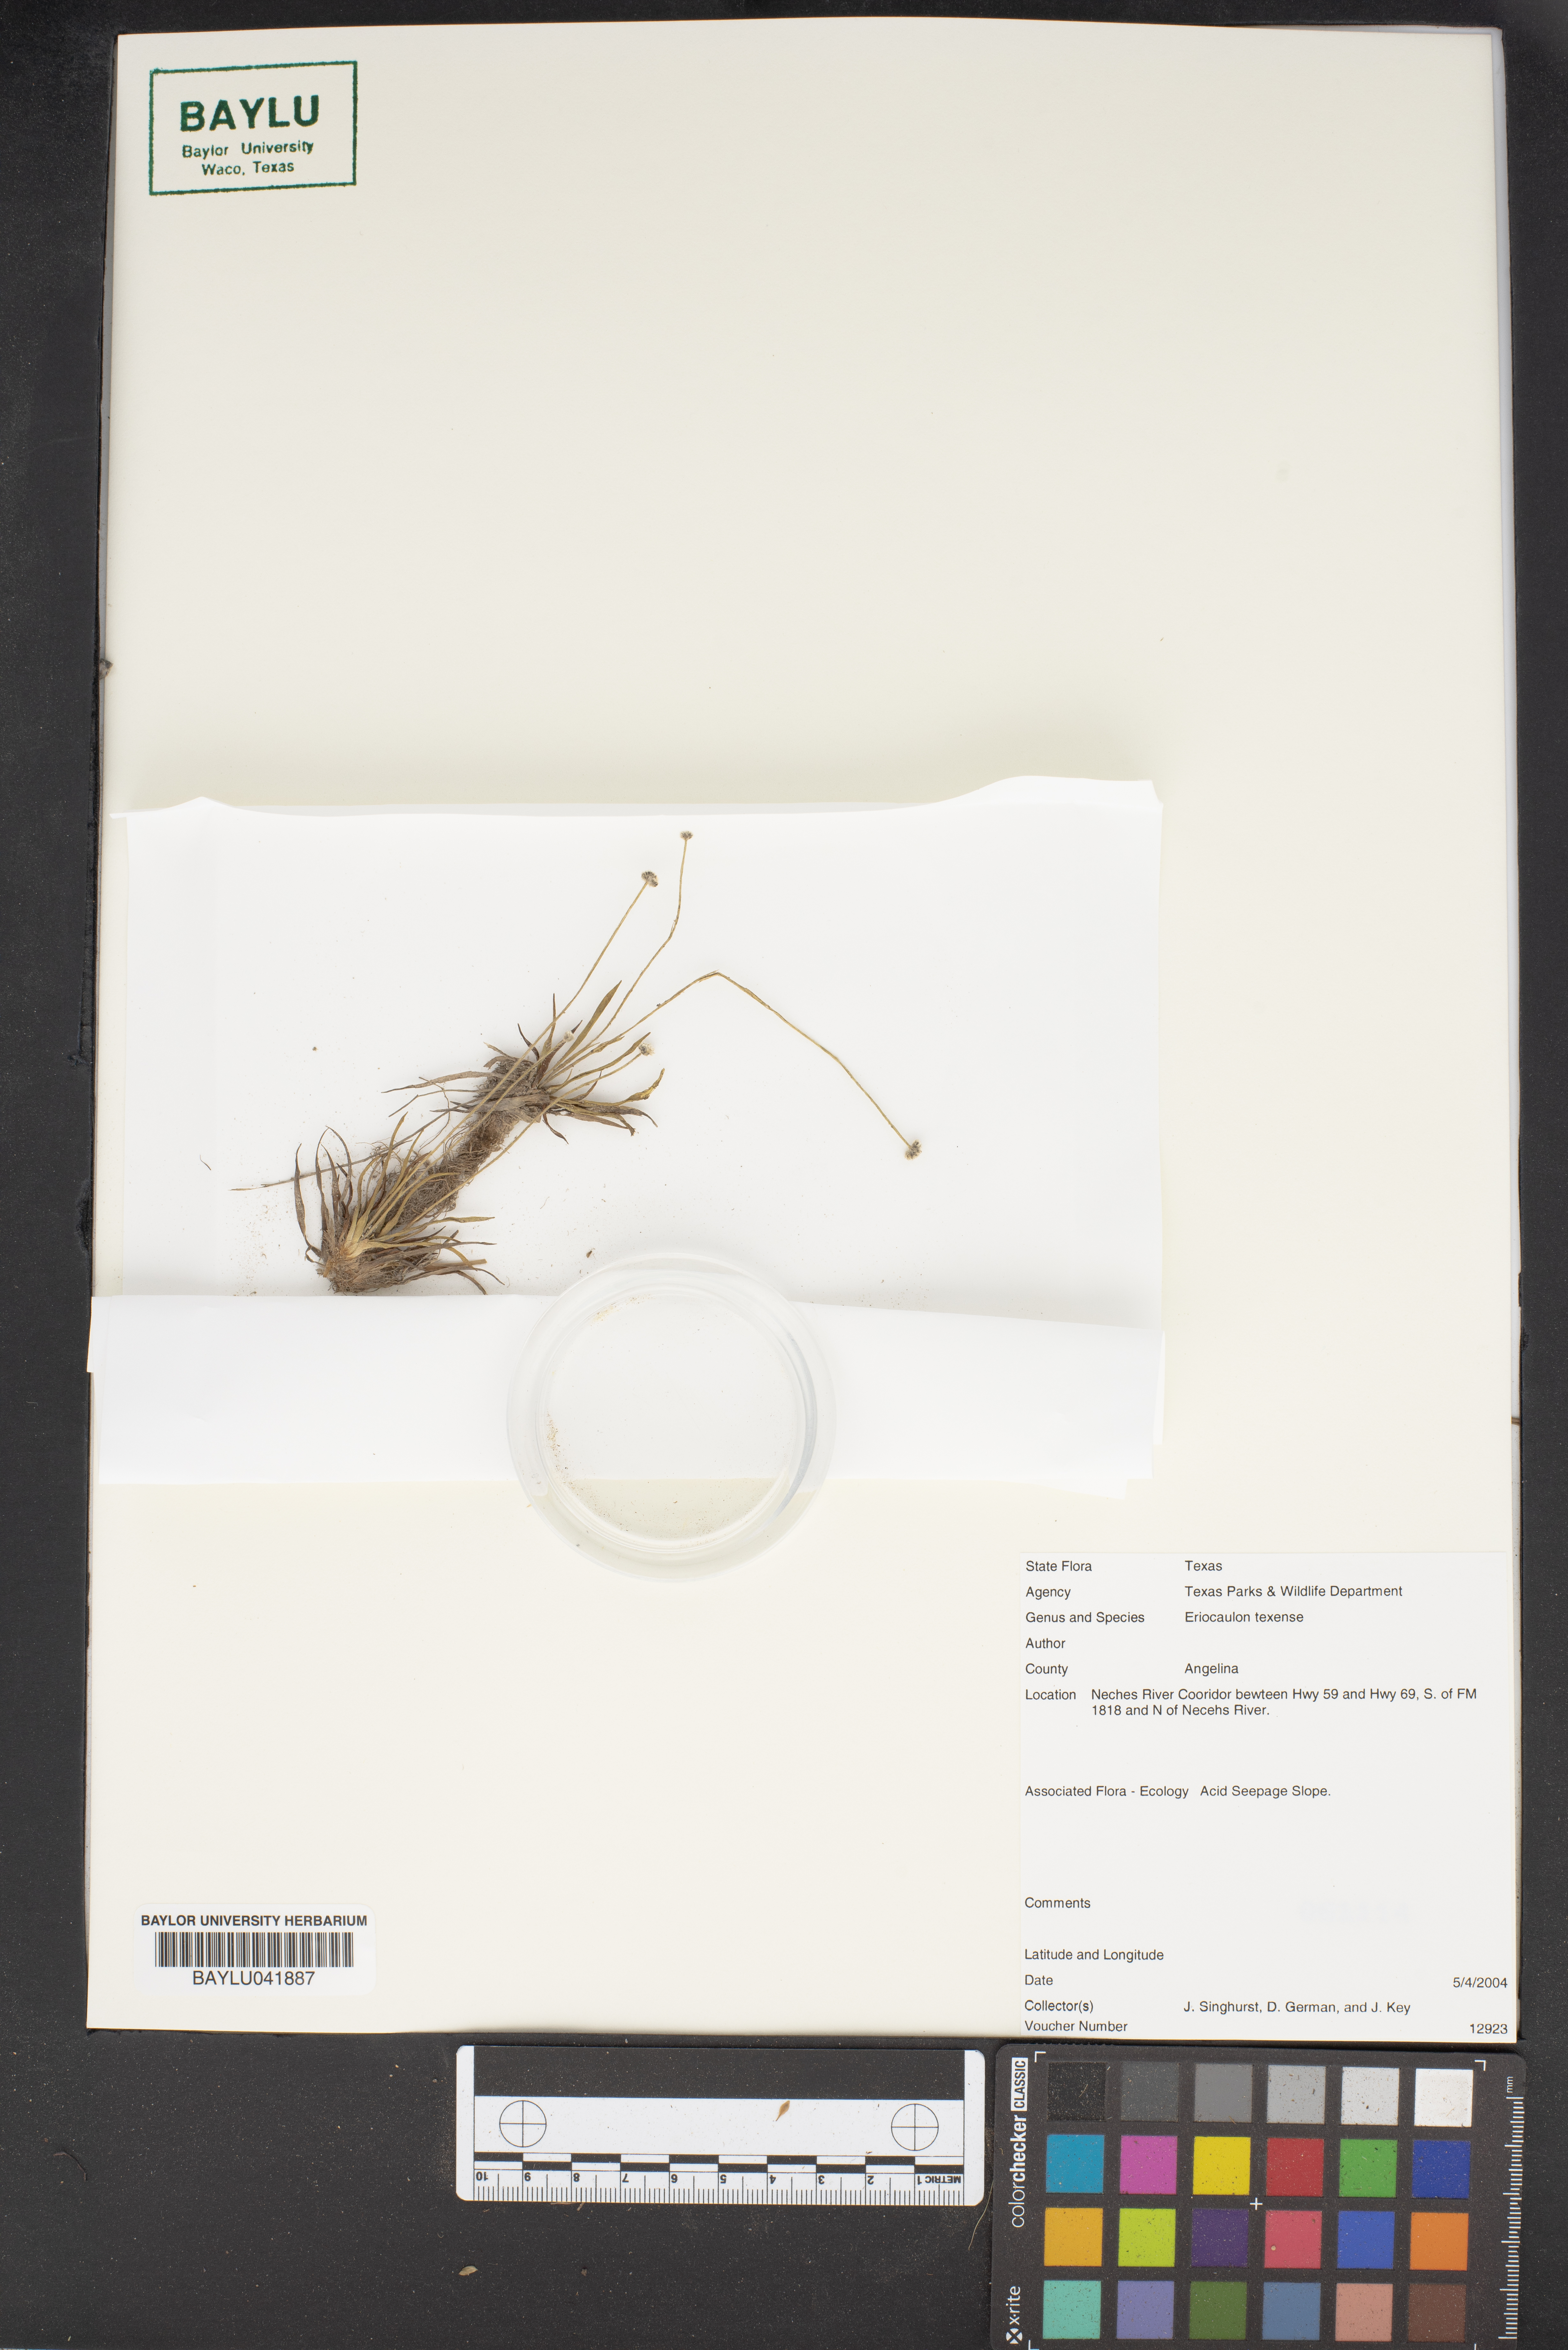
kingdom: Plantae
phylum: Tracheophyta
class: Liliopsida
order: Poales
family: Eriocaulaceae
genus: Eriocaulon
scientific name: Eriocaulon texense
